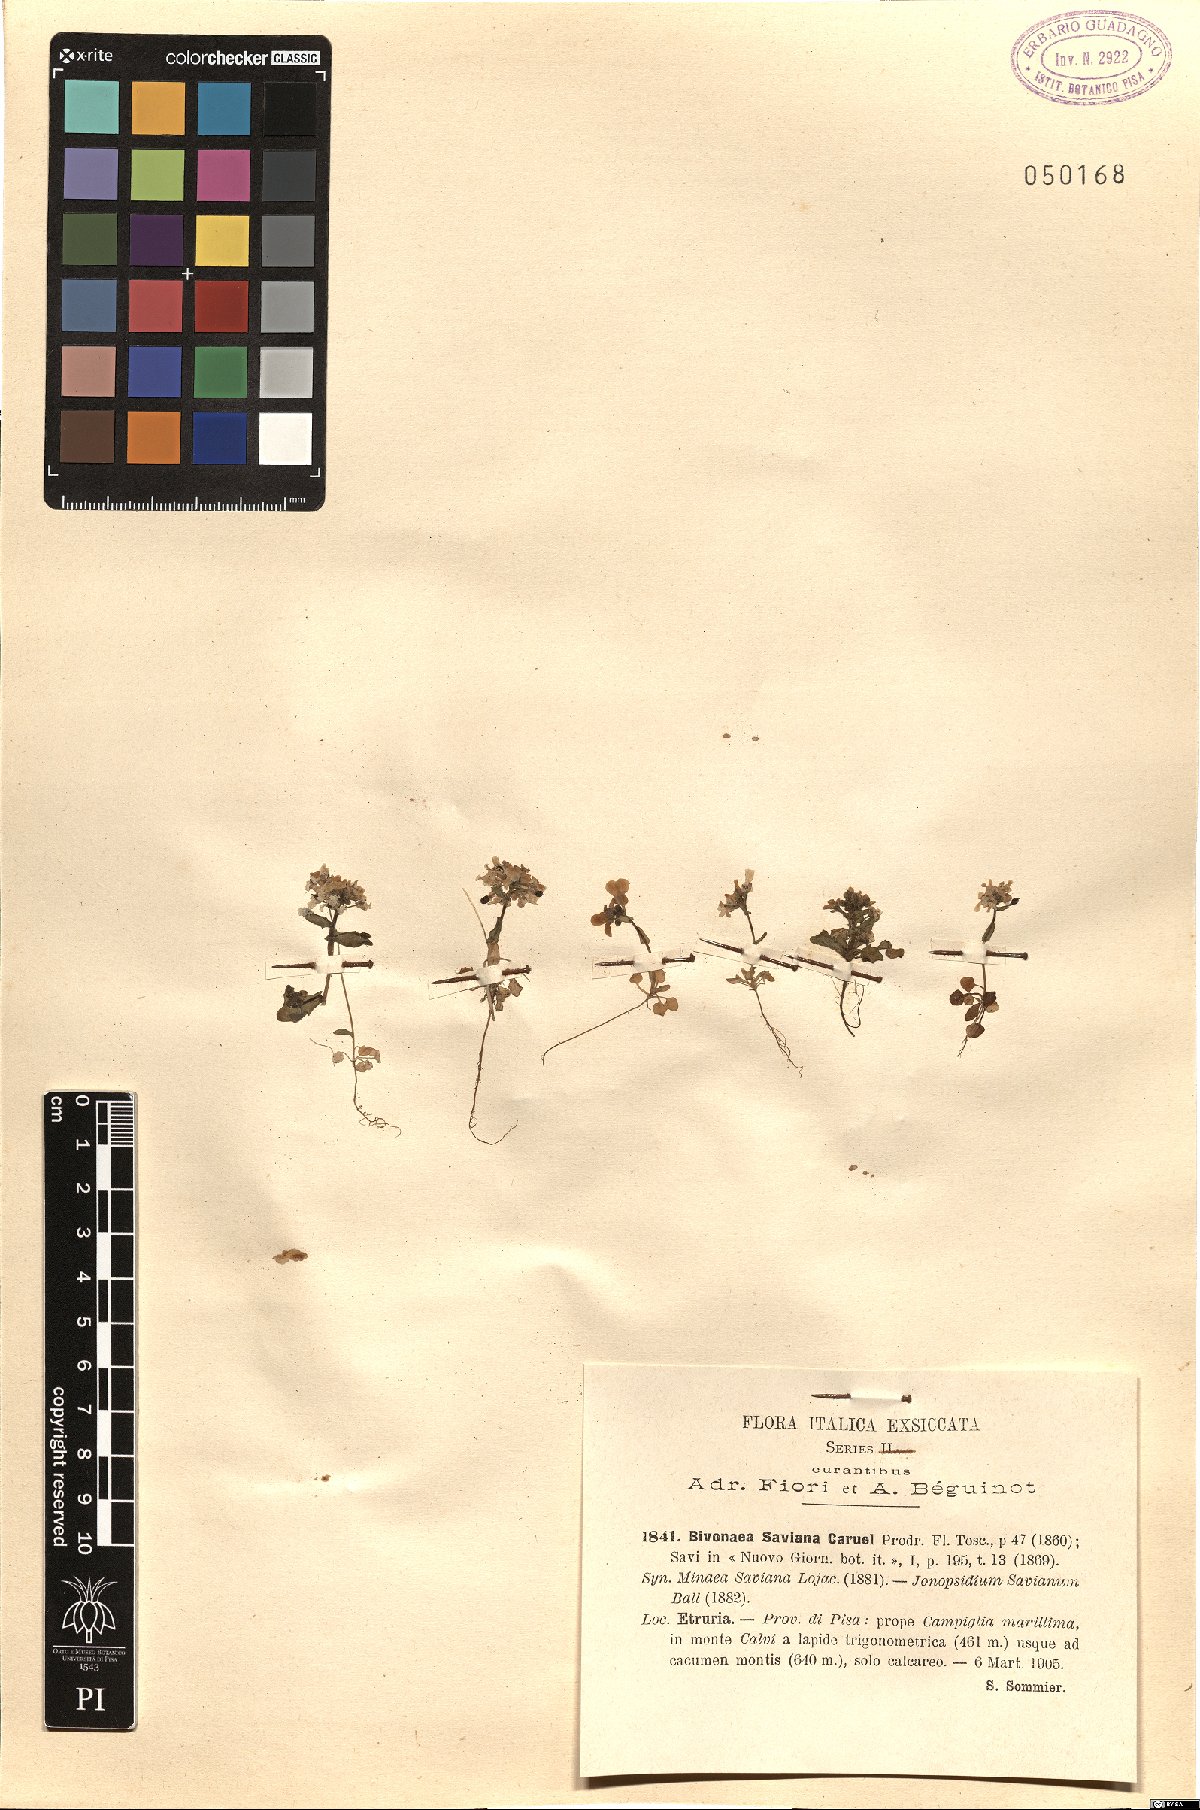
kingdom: Plantae
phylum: Tracheophyta
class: Magnoliopsida
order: Brassicales
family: Brassicaceae
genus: Ionopsidium
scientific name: Ionopsidium savianum
